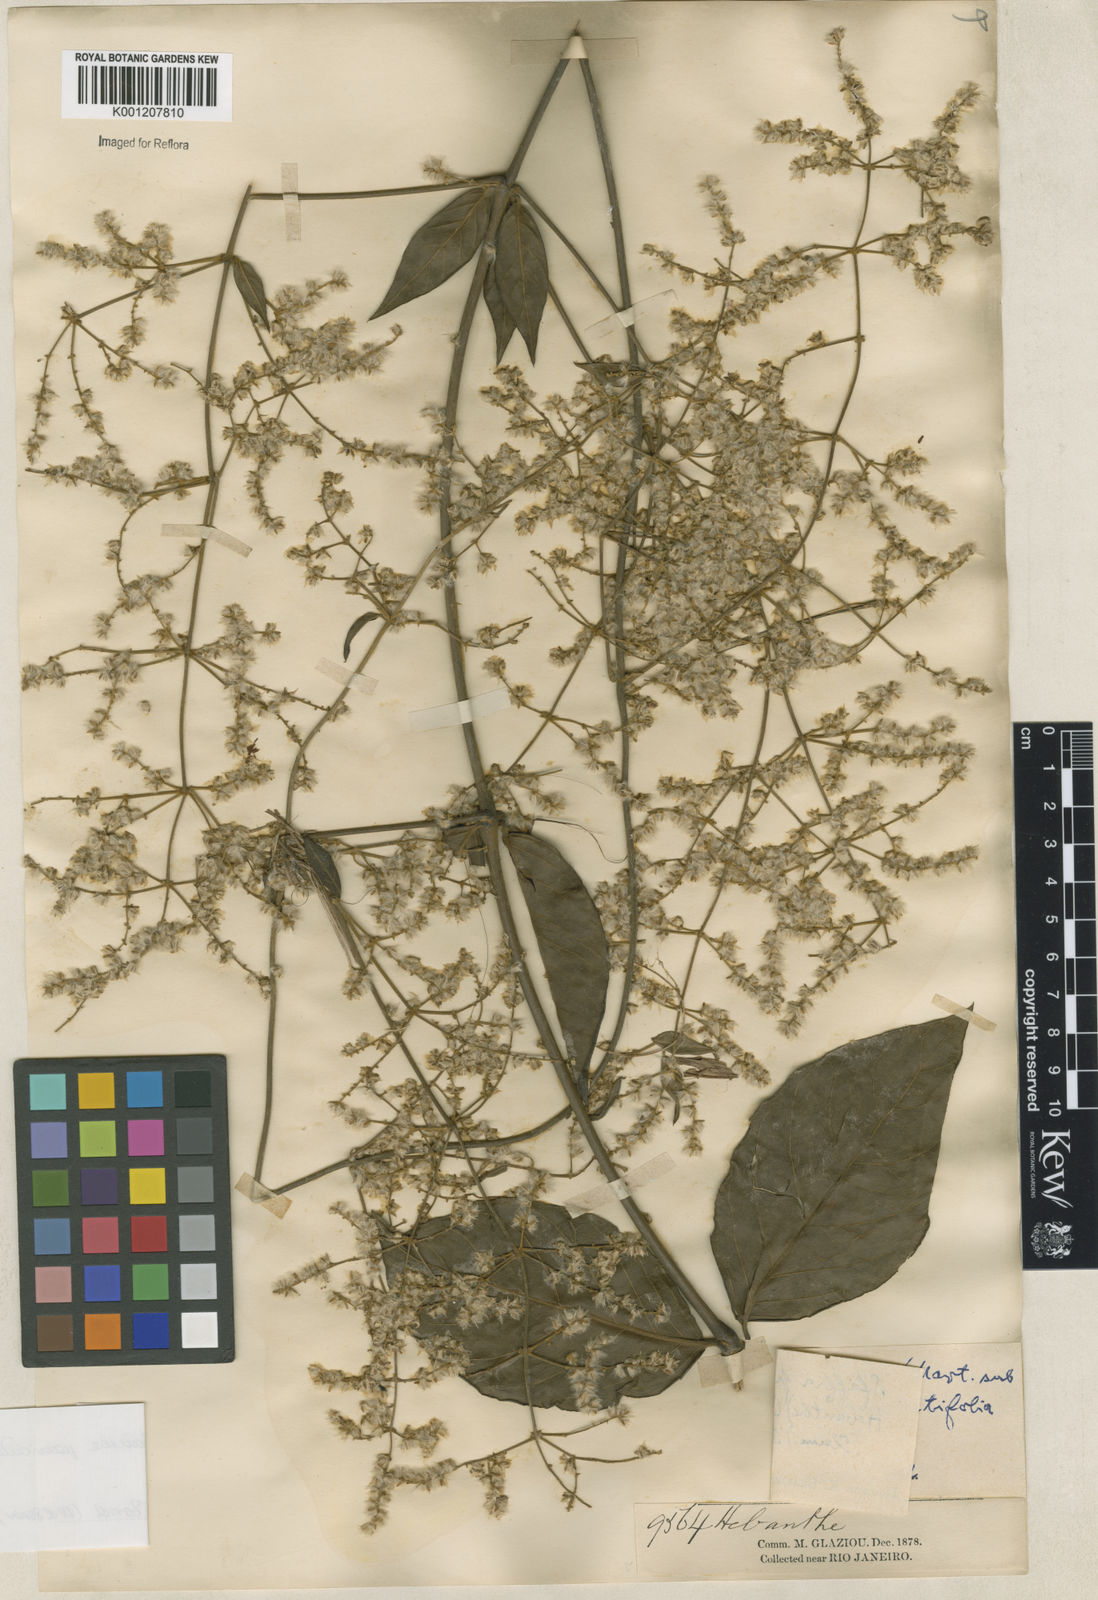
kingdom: Plantae
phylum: Tracheophyta
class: Magnoliopsida
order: Caryophyllales
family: Amaranthaceae
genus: Hebanthe
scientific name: Hebanthe erianthos
